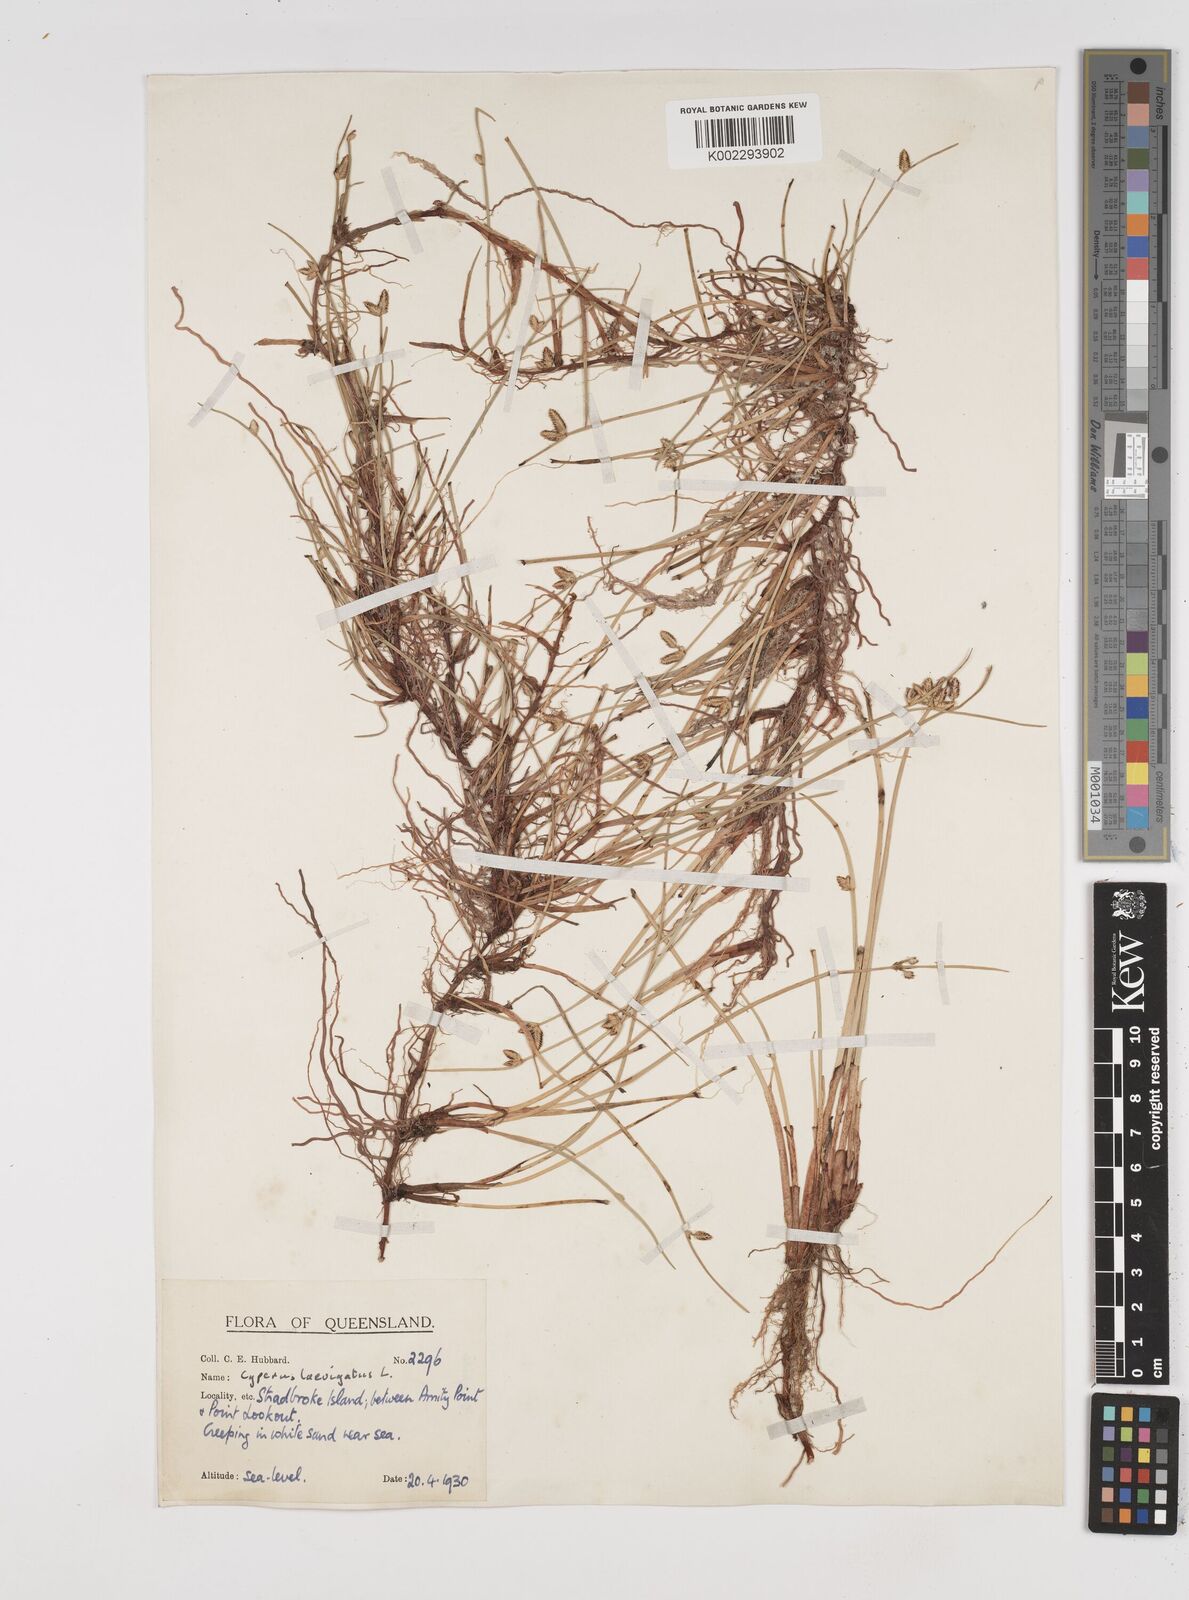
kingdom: Plantae
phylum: Tracheophyta
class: Liliopsida
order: Poales
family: Cyperaceae
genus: Cyperus
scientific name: Cyperus laevigatus
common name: Smooth flat sedge
